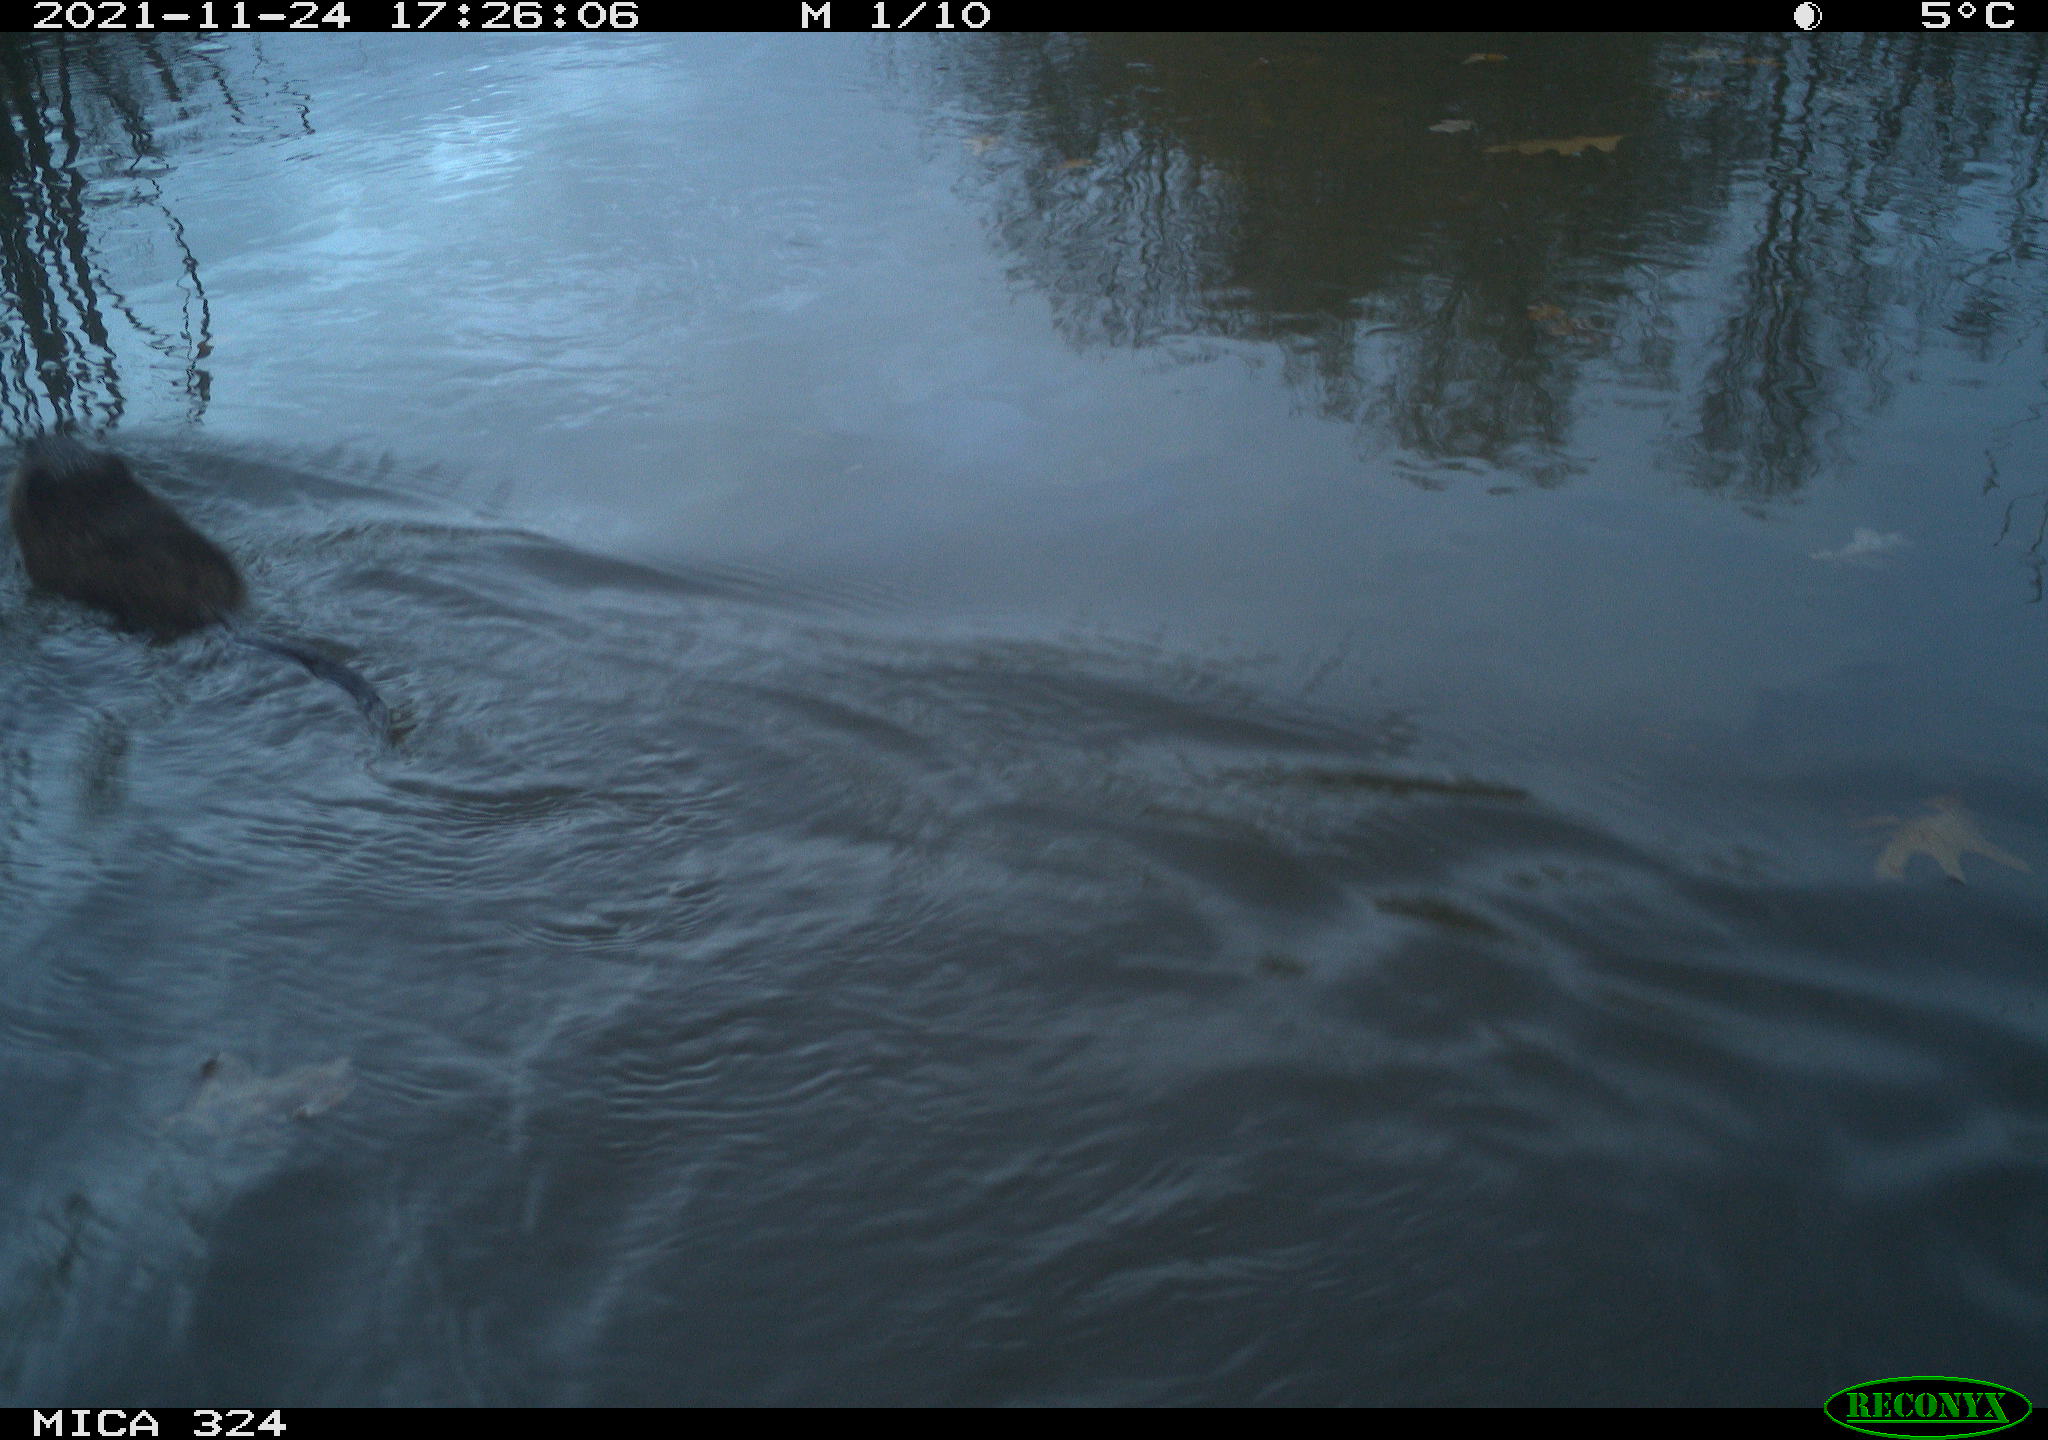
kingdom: Animalia
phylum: Chordata
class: Mammalia
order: Rodentia
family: Cricetidae
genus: Ondatra
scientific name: Ondatra zibethicus
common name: Muskrat
